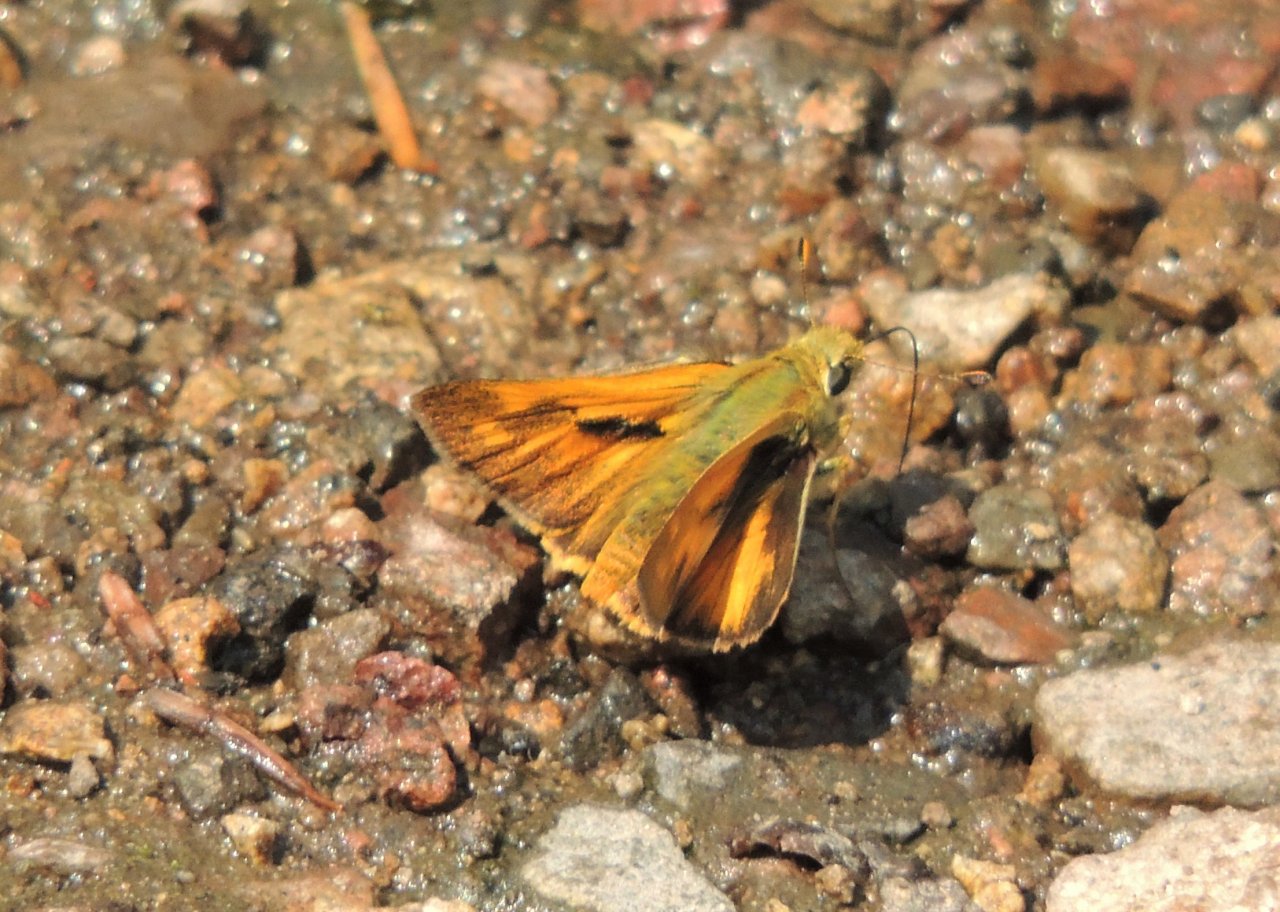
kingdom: Animalia
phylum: Arthropoda
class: Insecta
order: Lepidoptera
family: Hesperiidae
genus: Ochlodes
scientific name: Ochlodes sylvanoides
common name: Woodland Skipper
